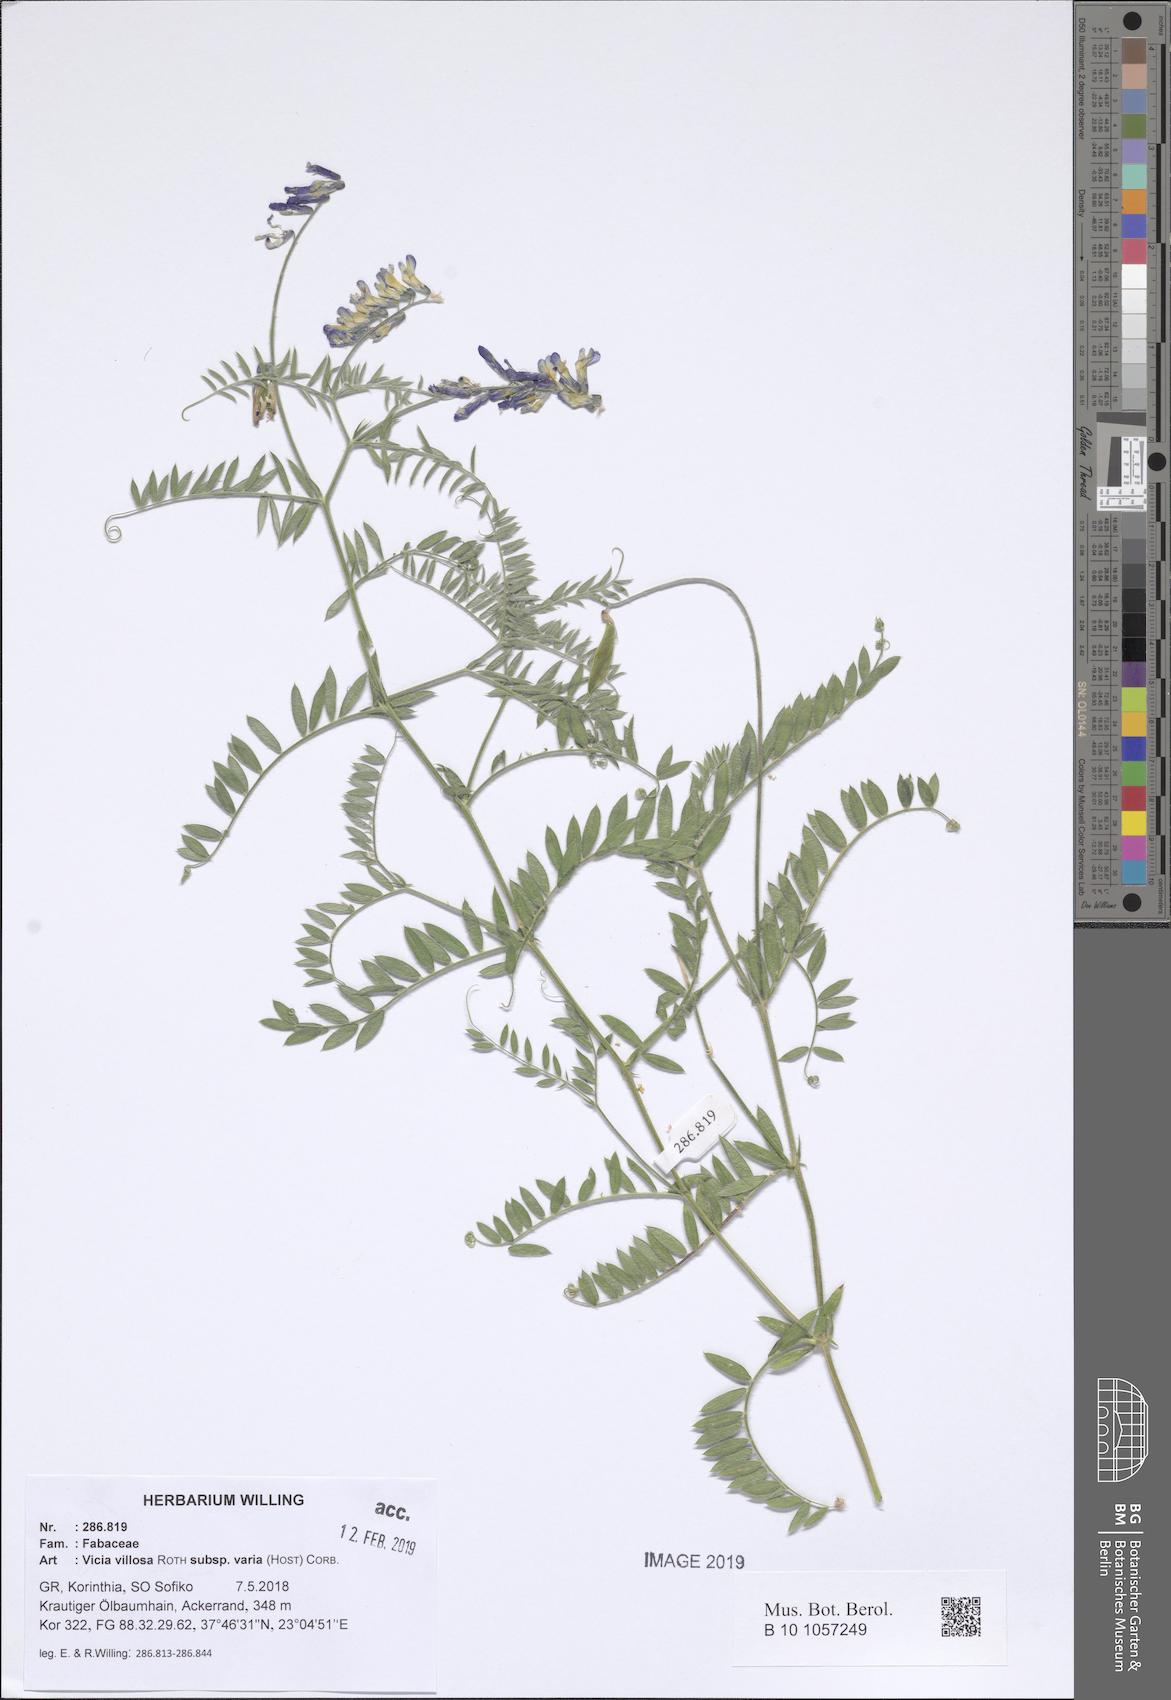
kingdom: Plantae
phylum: Tracheophyta
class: Magnoliopsida
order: Fabales
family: Fabaceae
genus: Vicia
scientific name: Vicia villosa
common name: Fodder vetch
